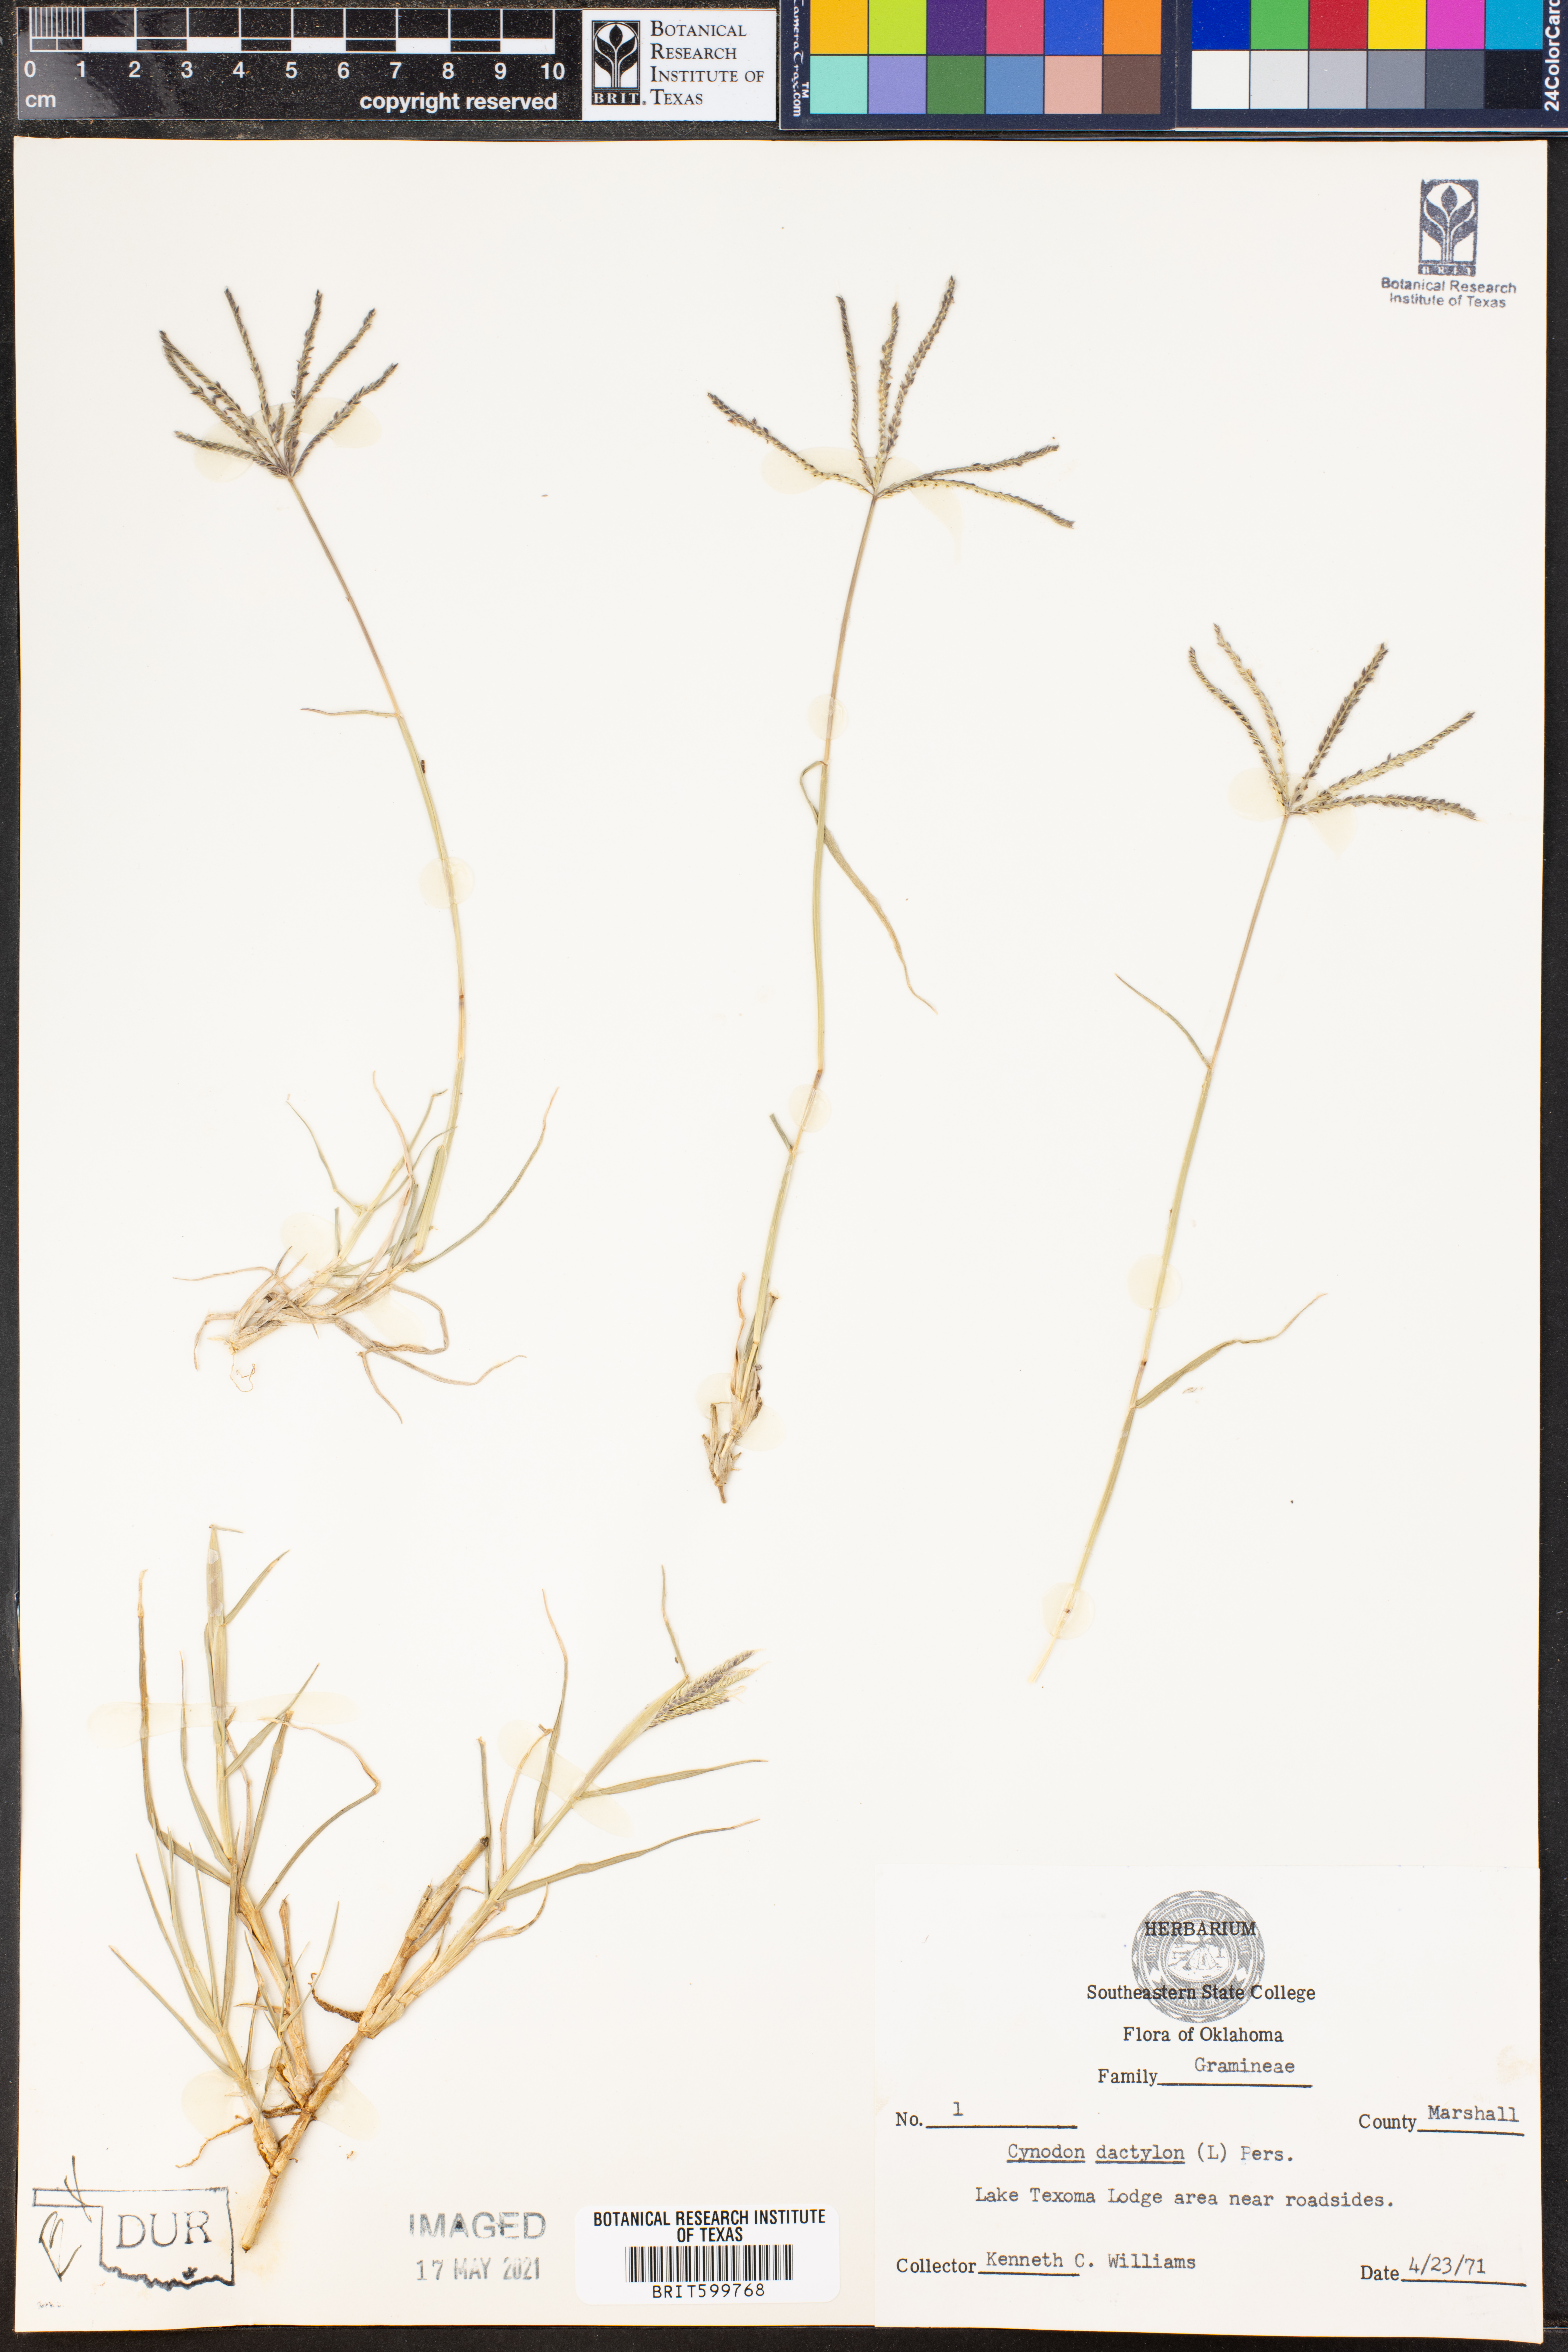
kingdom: Plantae
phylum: Tracheophyta
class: Liliopsida
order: Poales
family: Poaceae
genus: Cynodon
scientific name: Cynodon dactylon
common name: Bermuda grass
